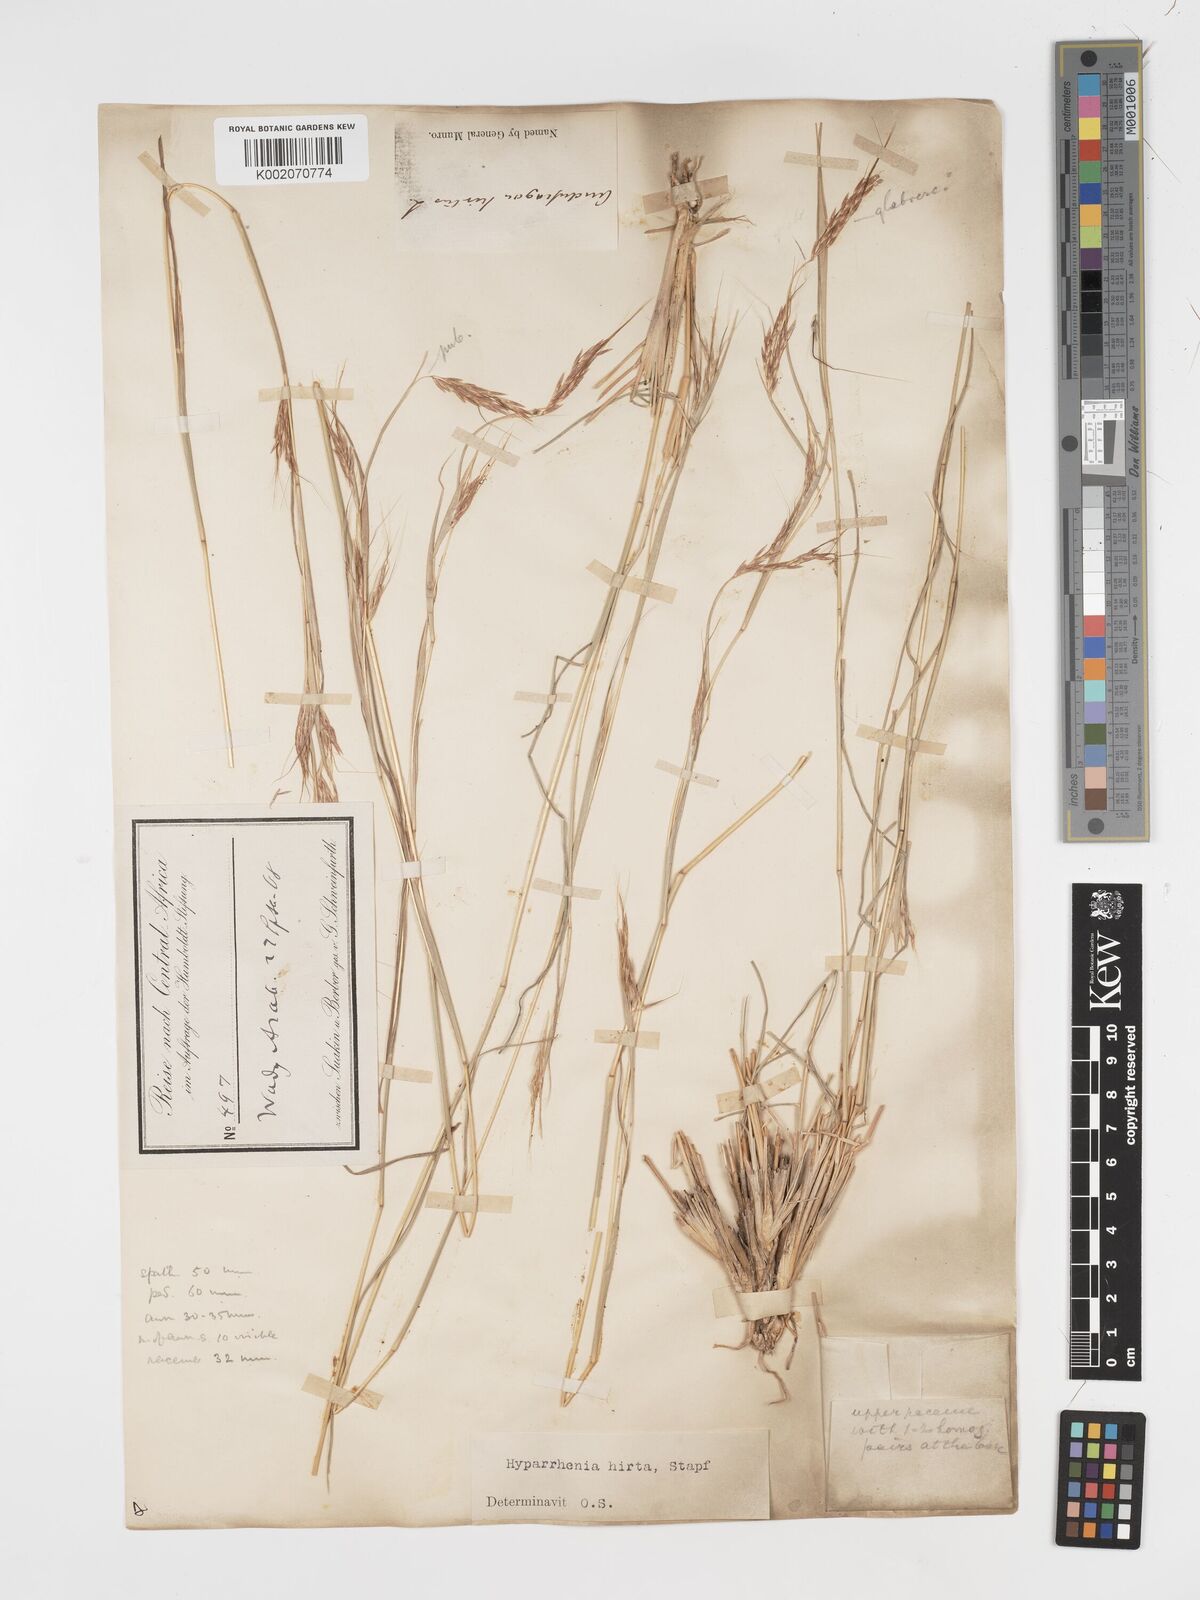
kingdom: Plantae
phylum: Tracheophyta
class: Liliopsida
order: Poales
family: Poaceae
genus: Hyparrhenia
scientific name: Hyparrhenia hirta
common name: Thatching grass
